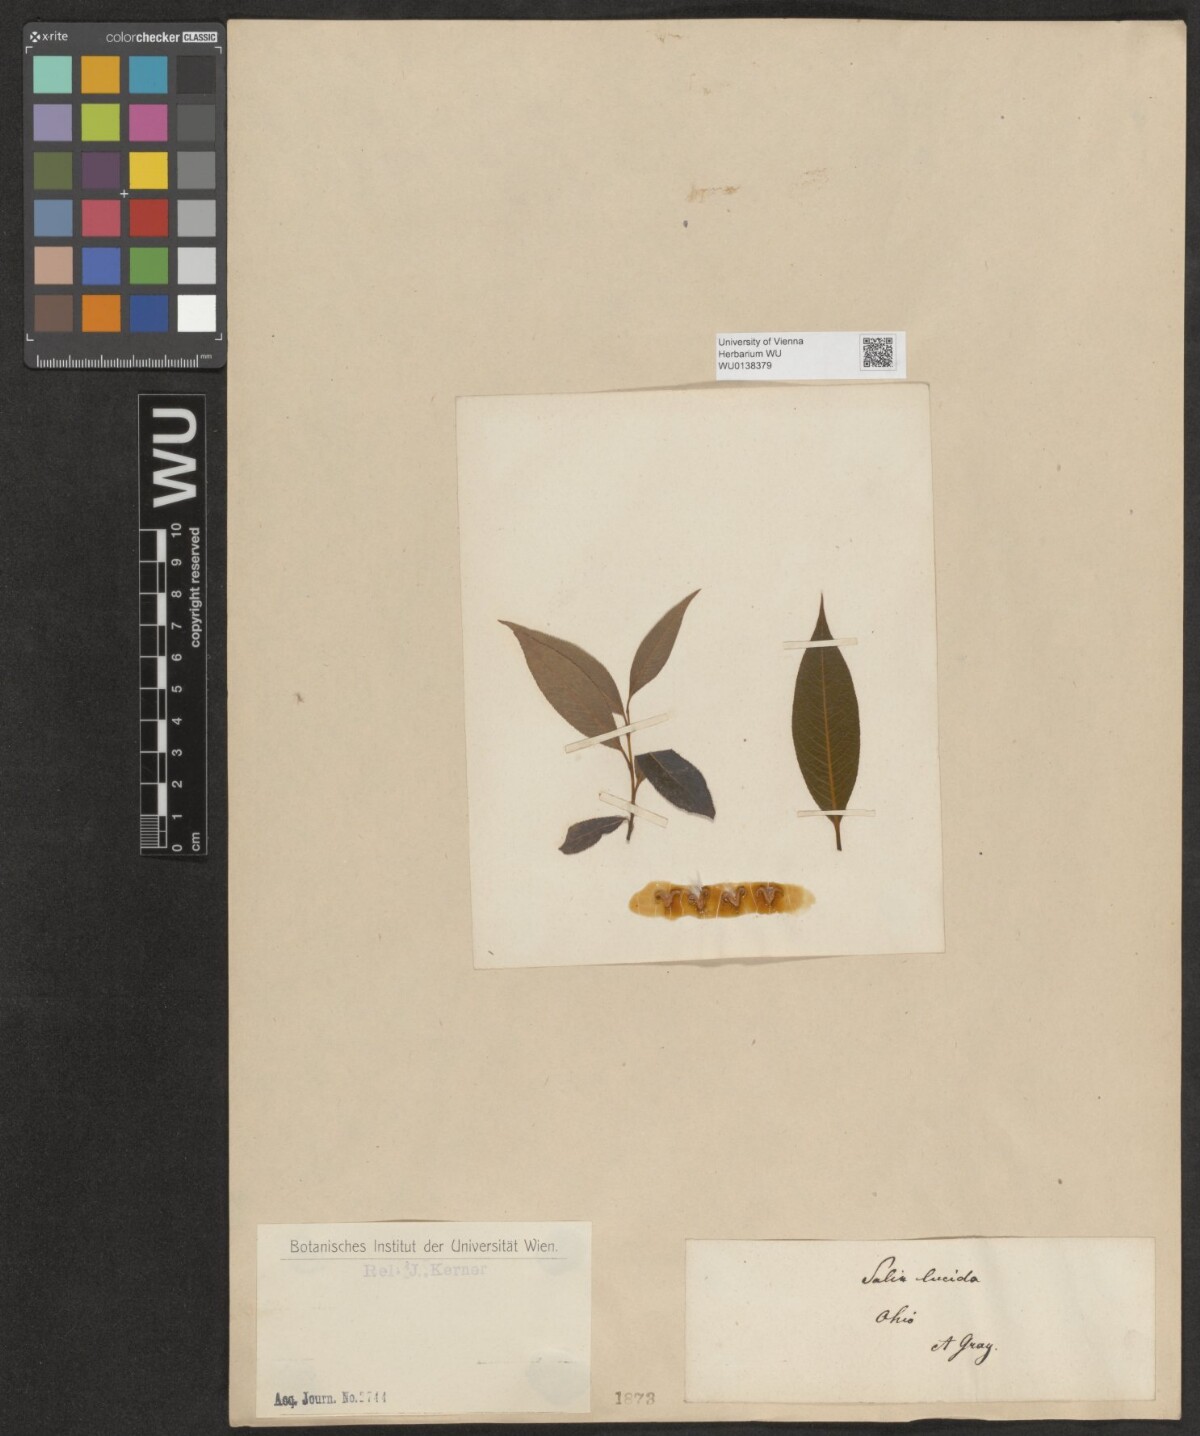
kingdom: Plantae
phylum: Tracheophyta
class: Magnoliopsida
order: Malpighiales
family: Salicaceae
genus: Salix
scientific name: Salix lucida
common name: Shining willow
